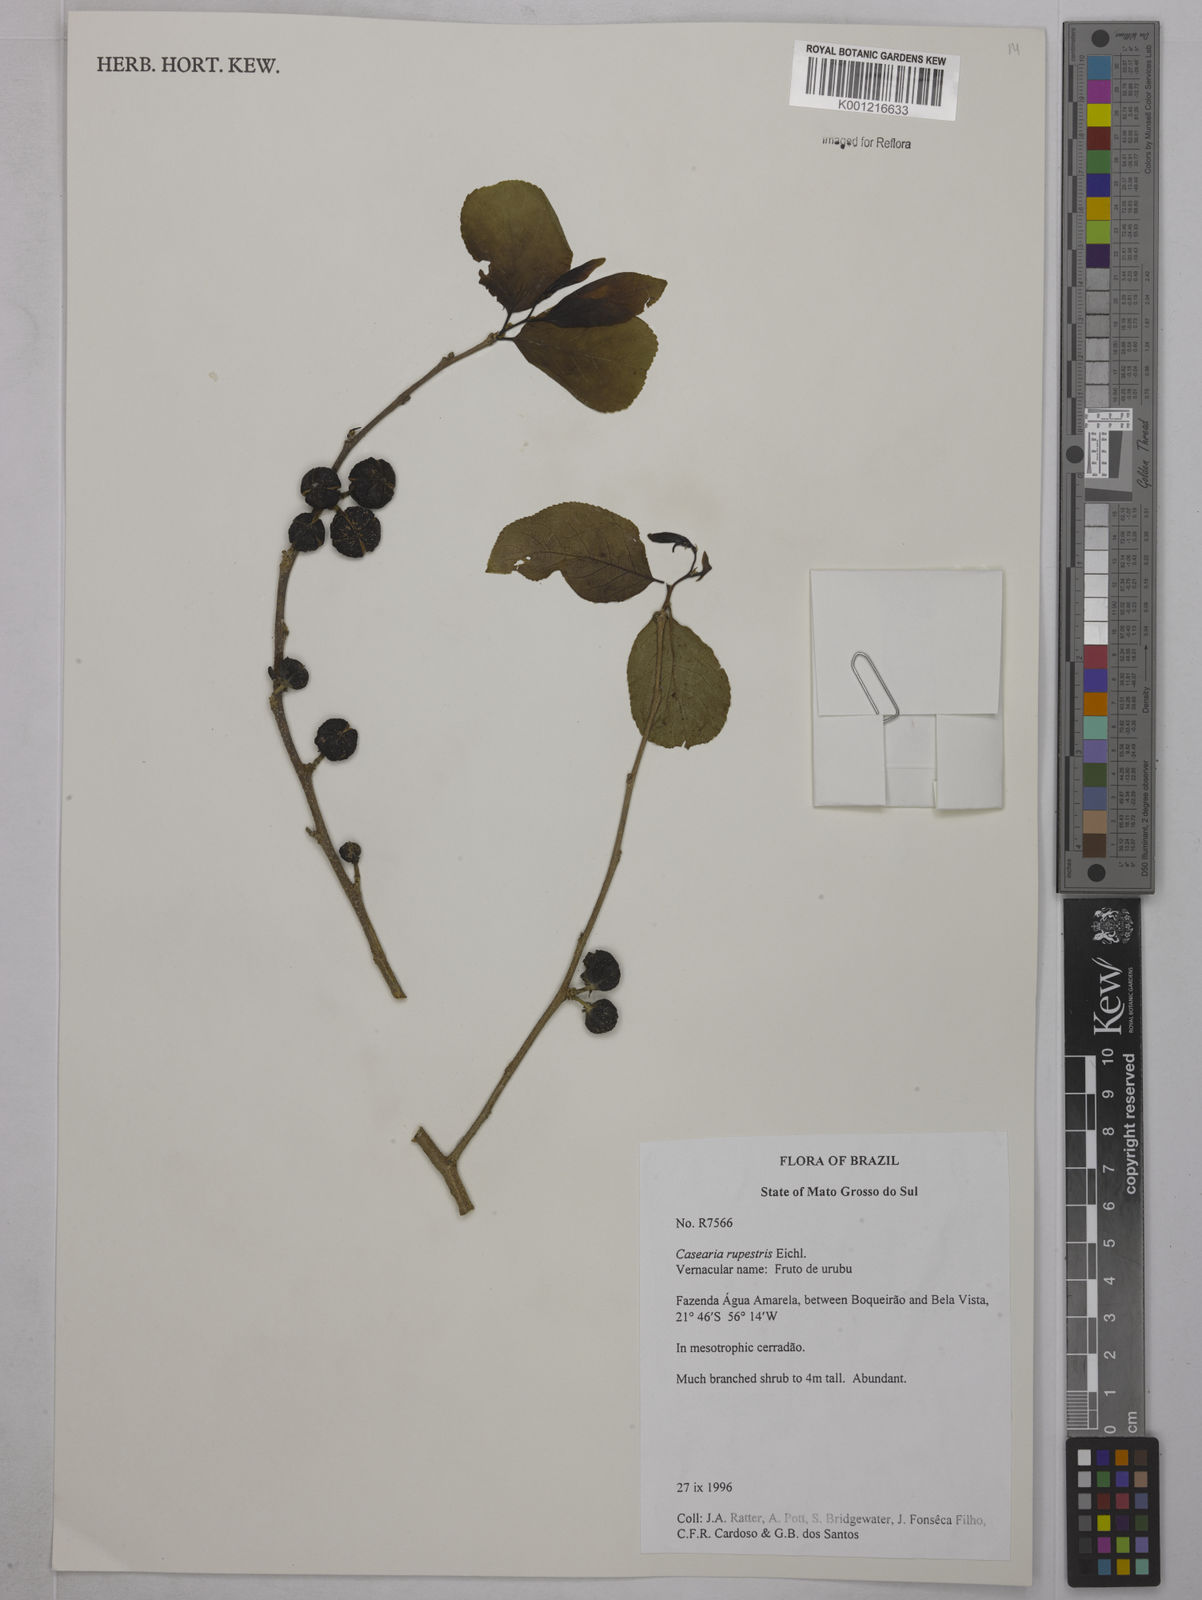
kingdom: Plantae
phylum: Tracheophyta
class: Magnoliopsida
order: Malpighiales
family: Salicaceae
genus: Casearia
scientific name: Casearia rupestris
